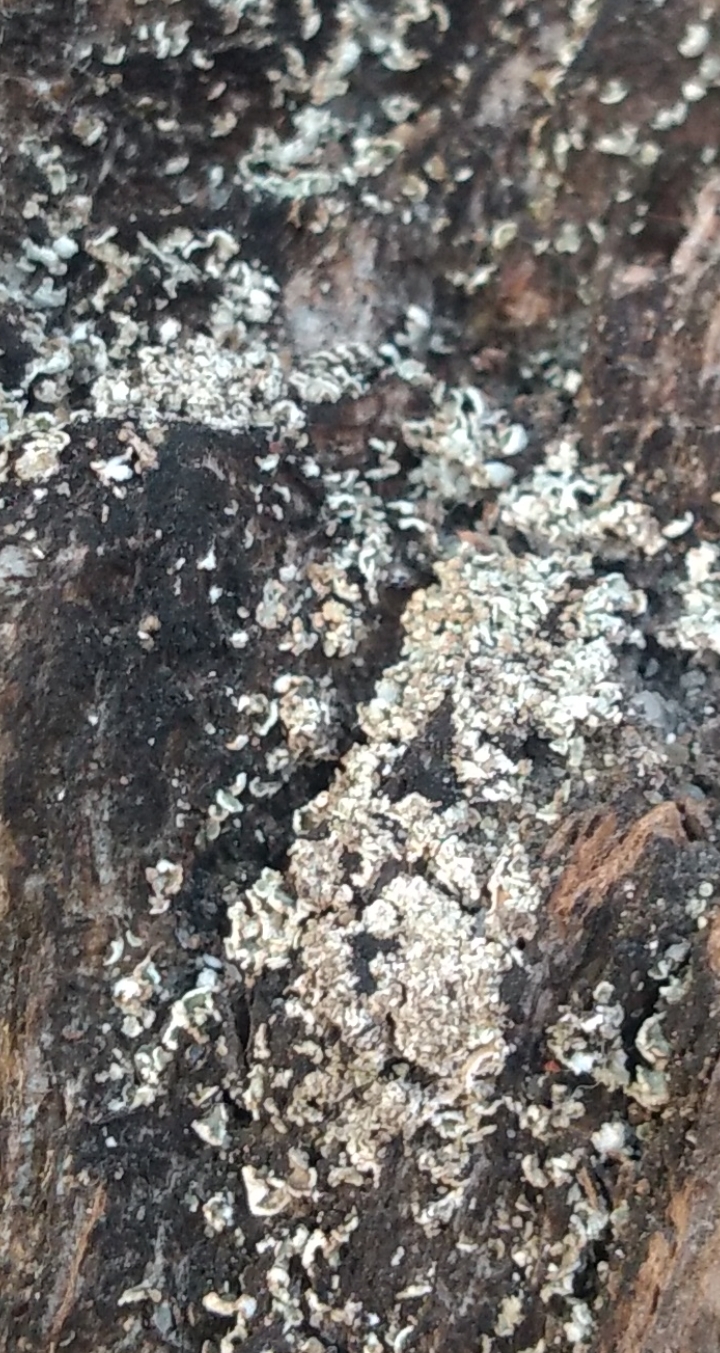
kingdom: Fungi
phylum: Ascomycota
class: Lecanoromycetes
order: Lecanorales
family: Cladoniaceae
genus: Cladonia
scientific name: Cladonia
